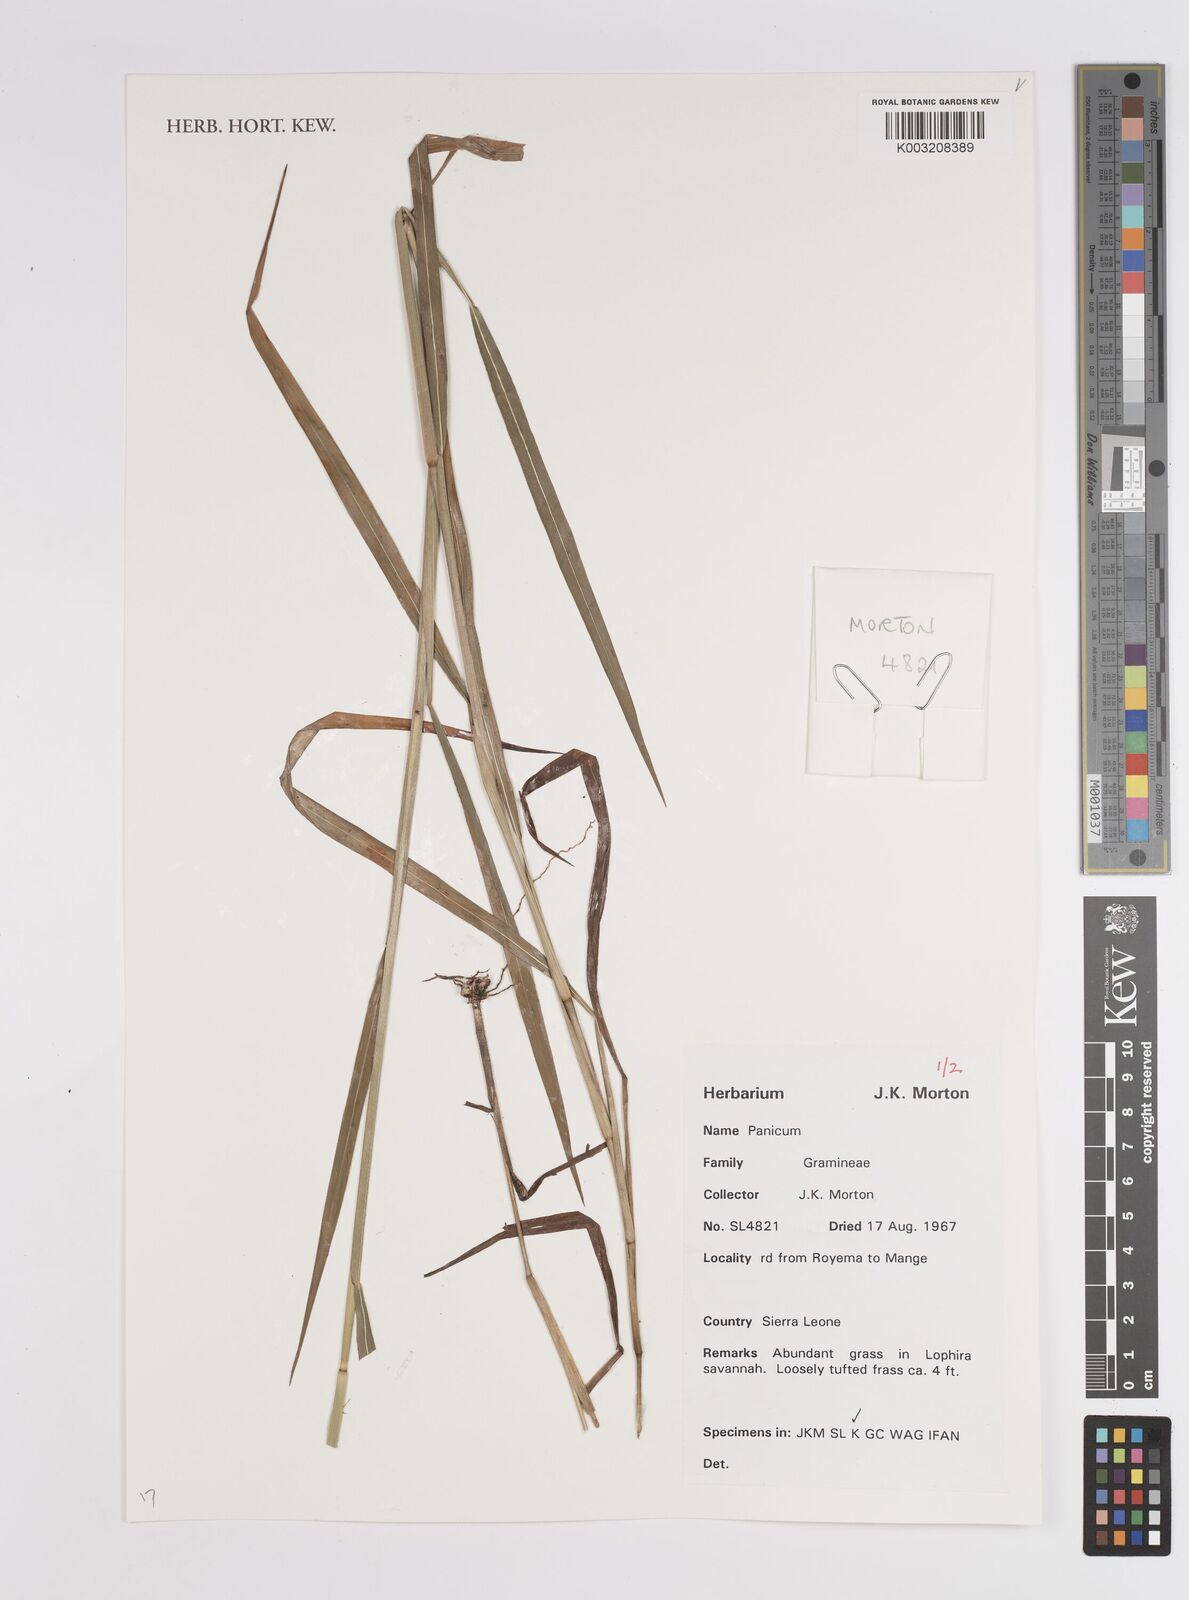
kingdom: Plantae
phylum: Tracheophyta
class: Liliopsida
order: Poales
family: Poaceae
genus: Panicum
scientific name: Panicum
